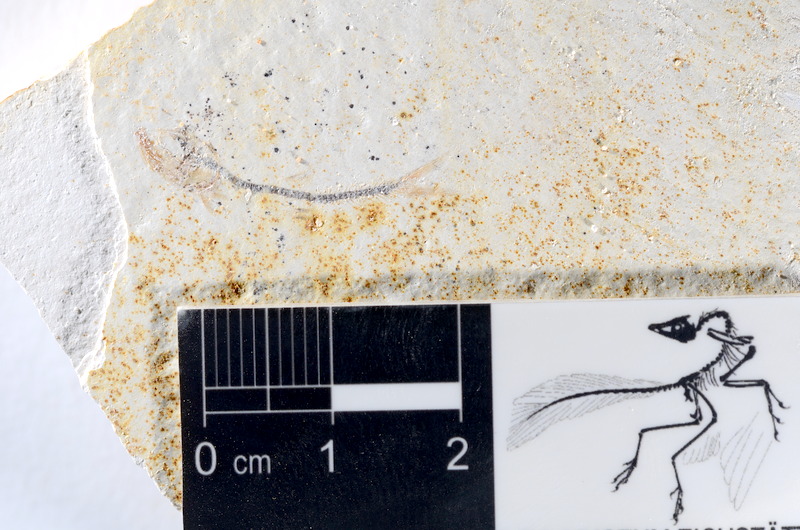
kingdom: Animalia
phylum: Chordata
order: Salmoniformes
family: Orthogonikleithridae
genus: Orthogonikleithrus
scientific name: Orthogonikleithrus hoelli
